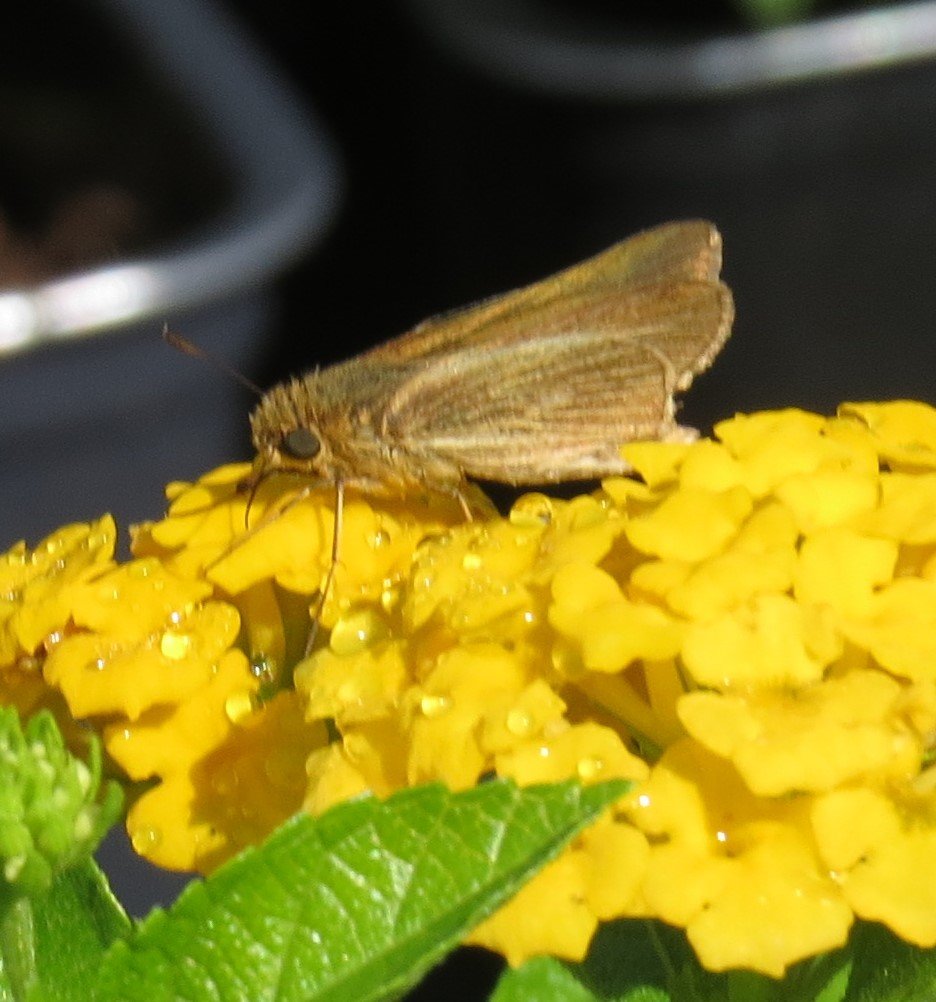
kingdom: Animalia
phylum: Arthropoda
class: Insecta
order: Lepidoptera
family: Hesperiidae
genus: Panoquina
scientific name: Panoquina panoquin
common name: Salt Marsh Skipper
